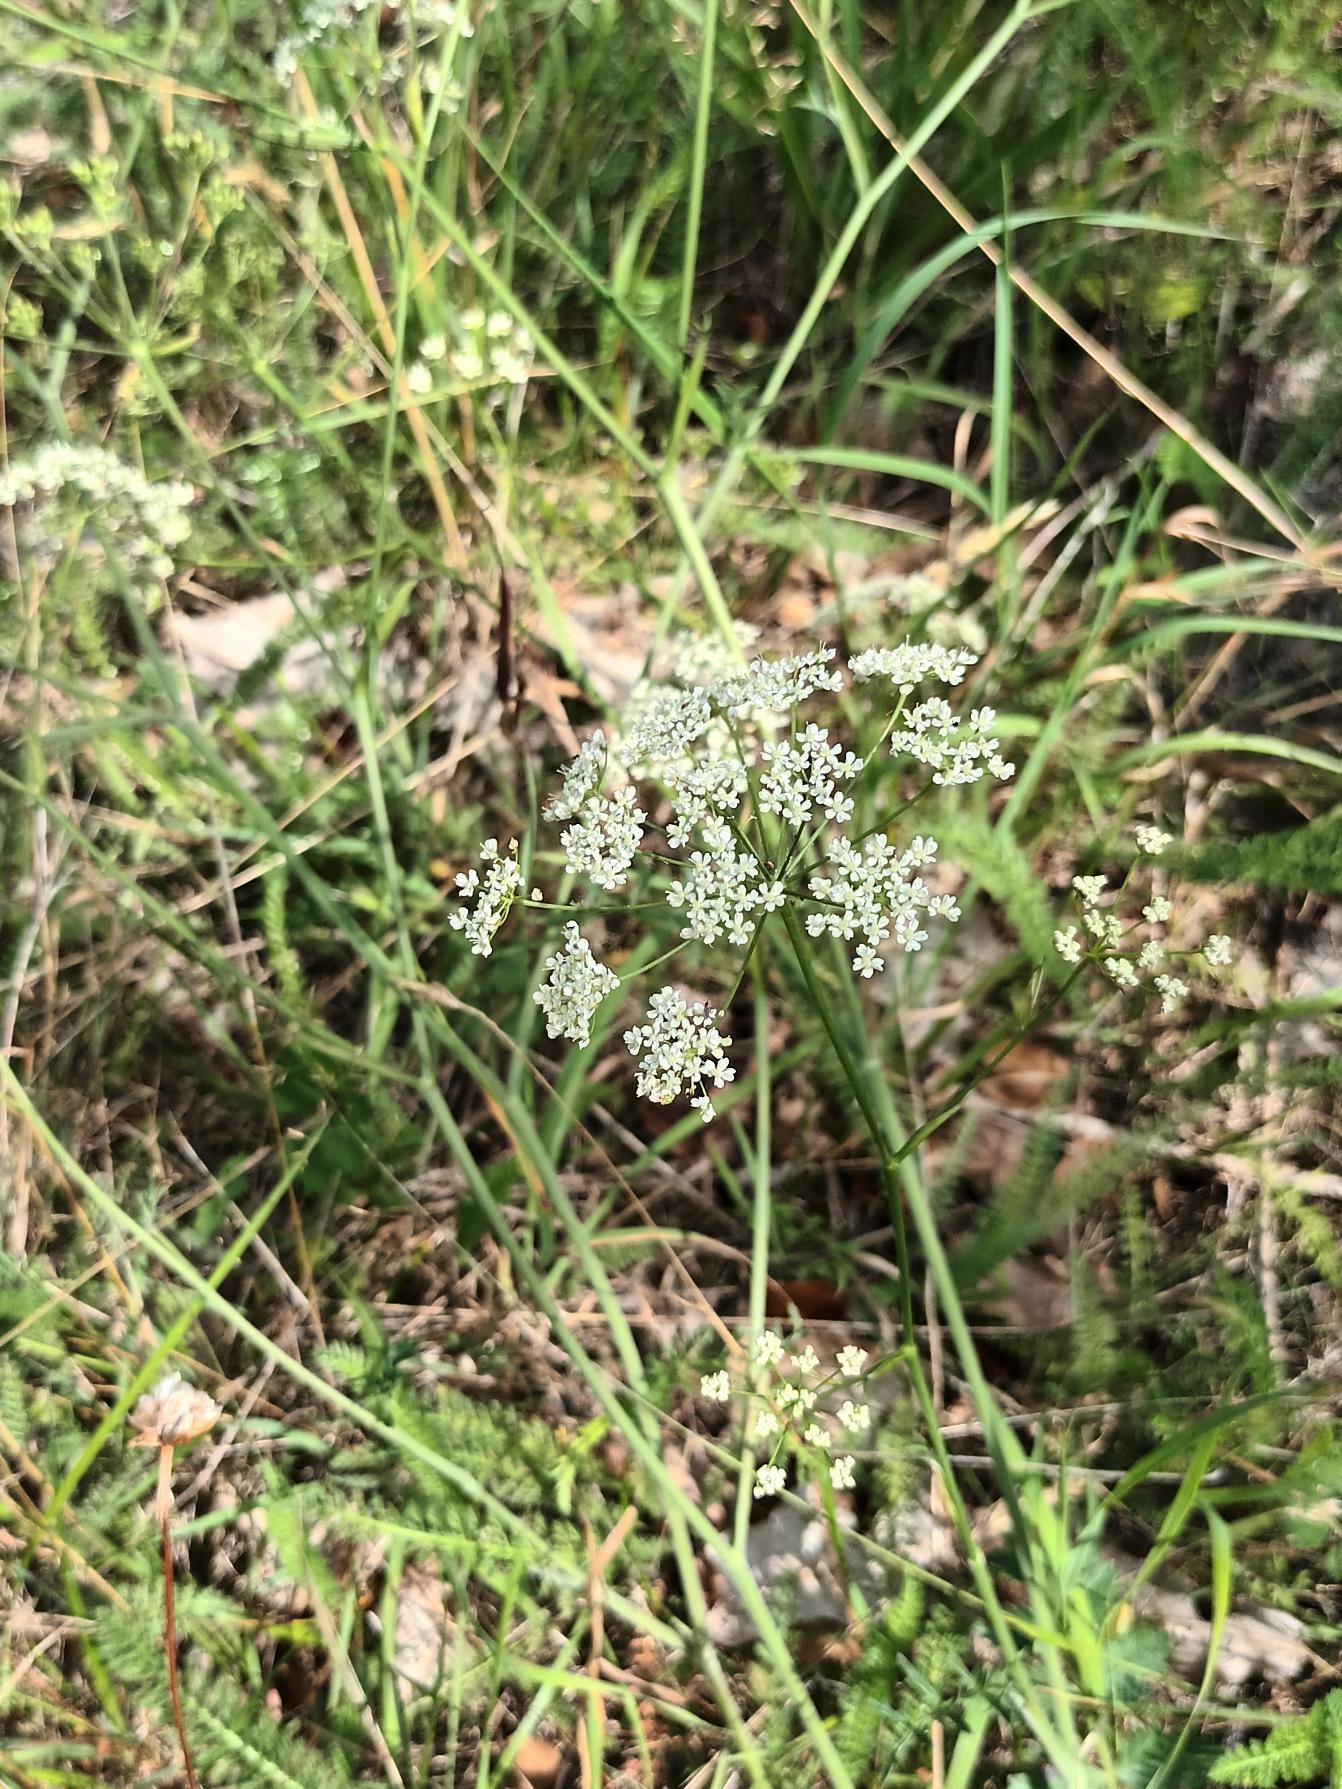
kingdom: Plantae
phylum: Tracheophyta
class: Magnoliopsida
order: Apiales
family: Apiaceae
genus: Pimpinella
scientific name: Pimpinella saxifraga
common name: Almindelig pimpinelle
